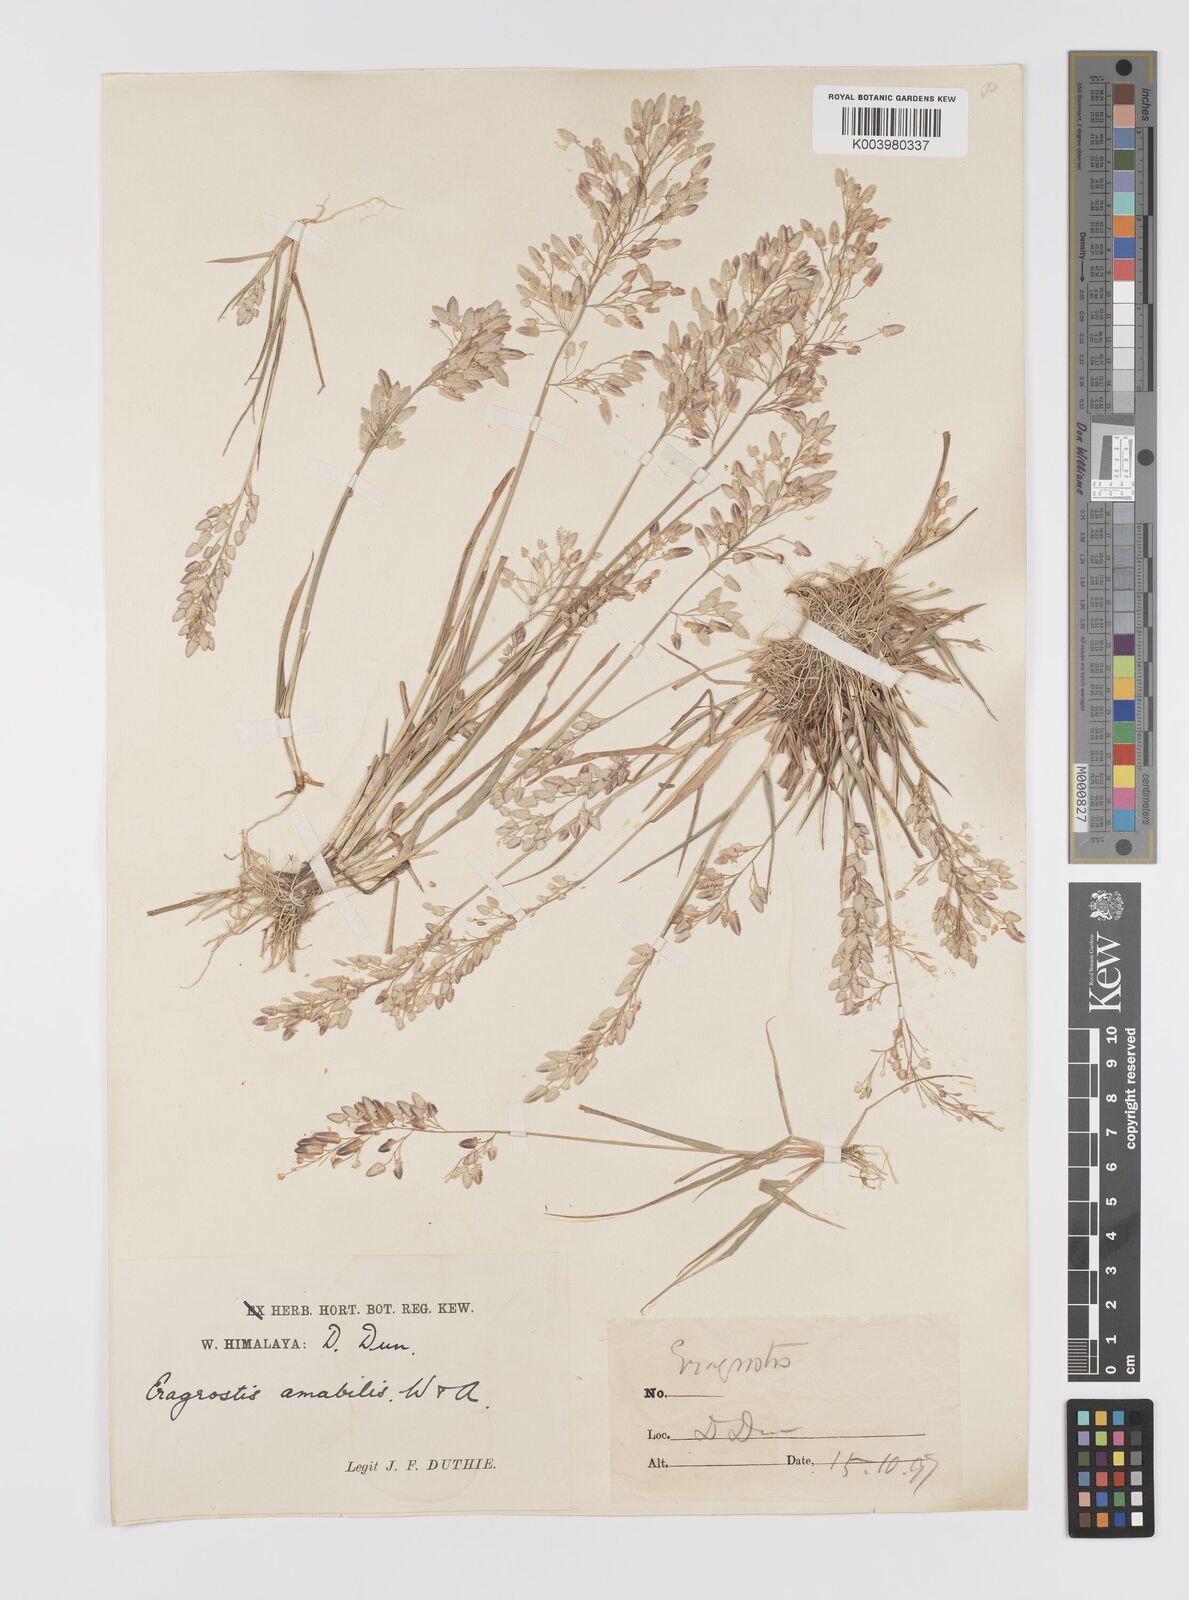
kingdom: Plantae
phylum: Tracheophyta
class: Liliopsida
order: Poales
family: Poaceae
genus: Eragrostis
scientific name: Eragrostis unioloides
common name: Chinese lovegrass
